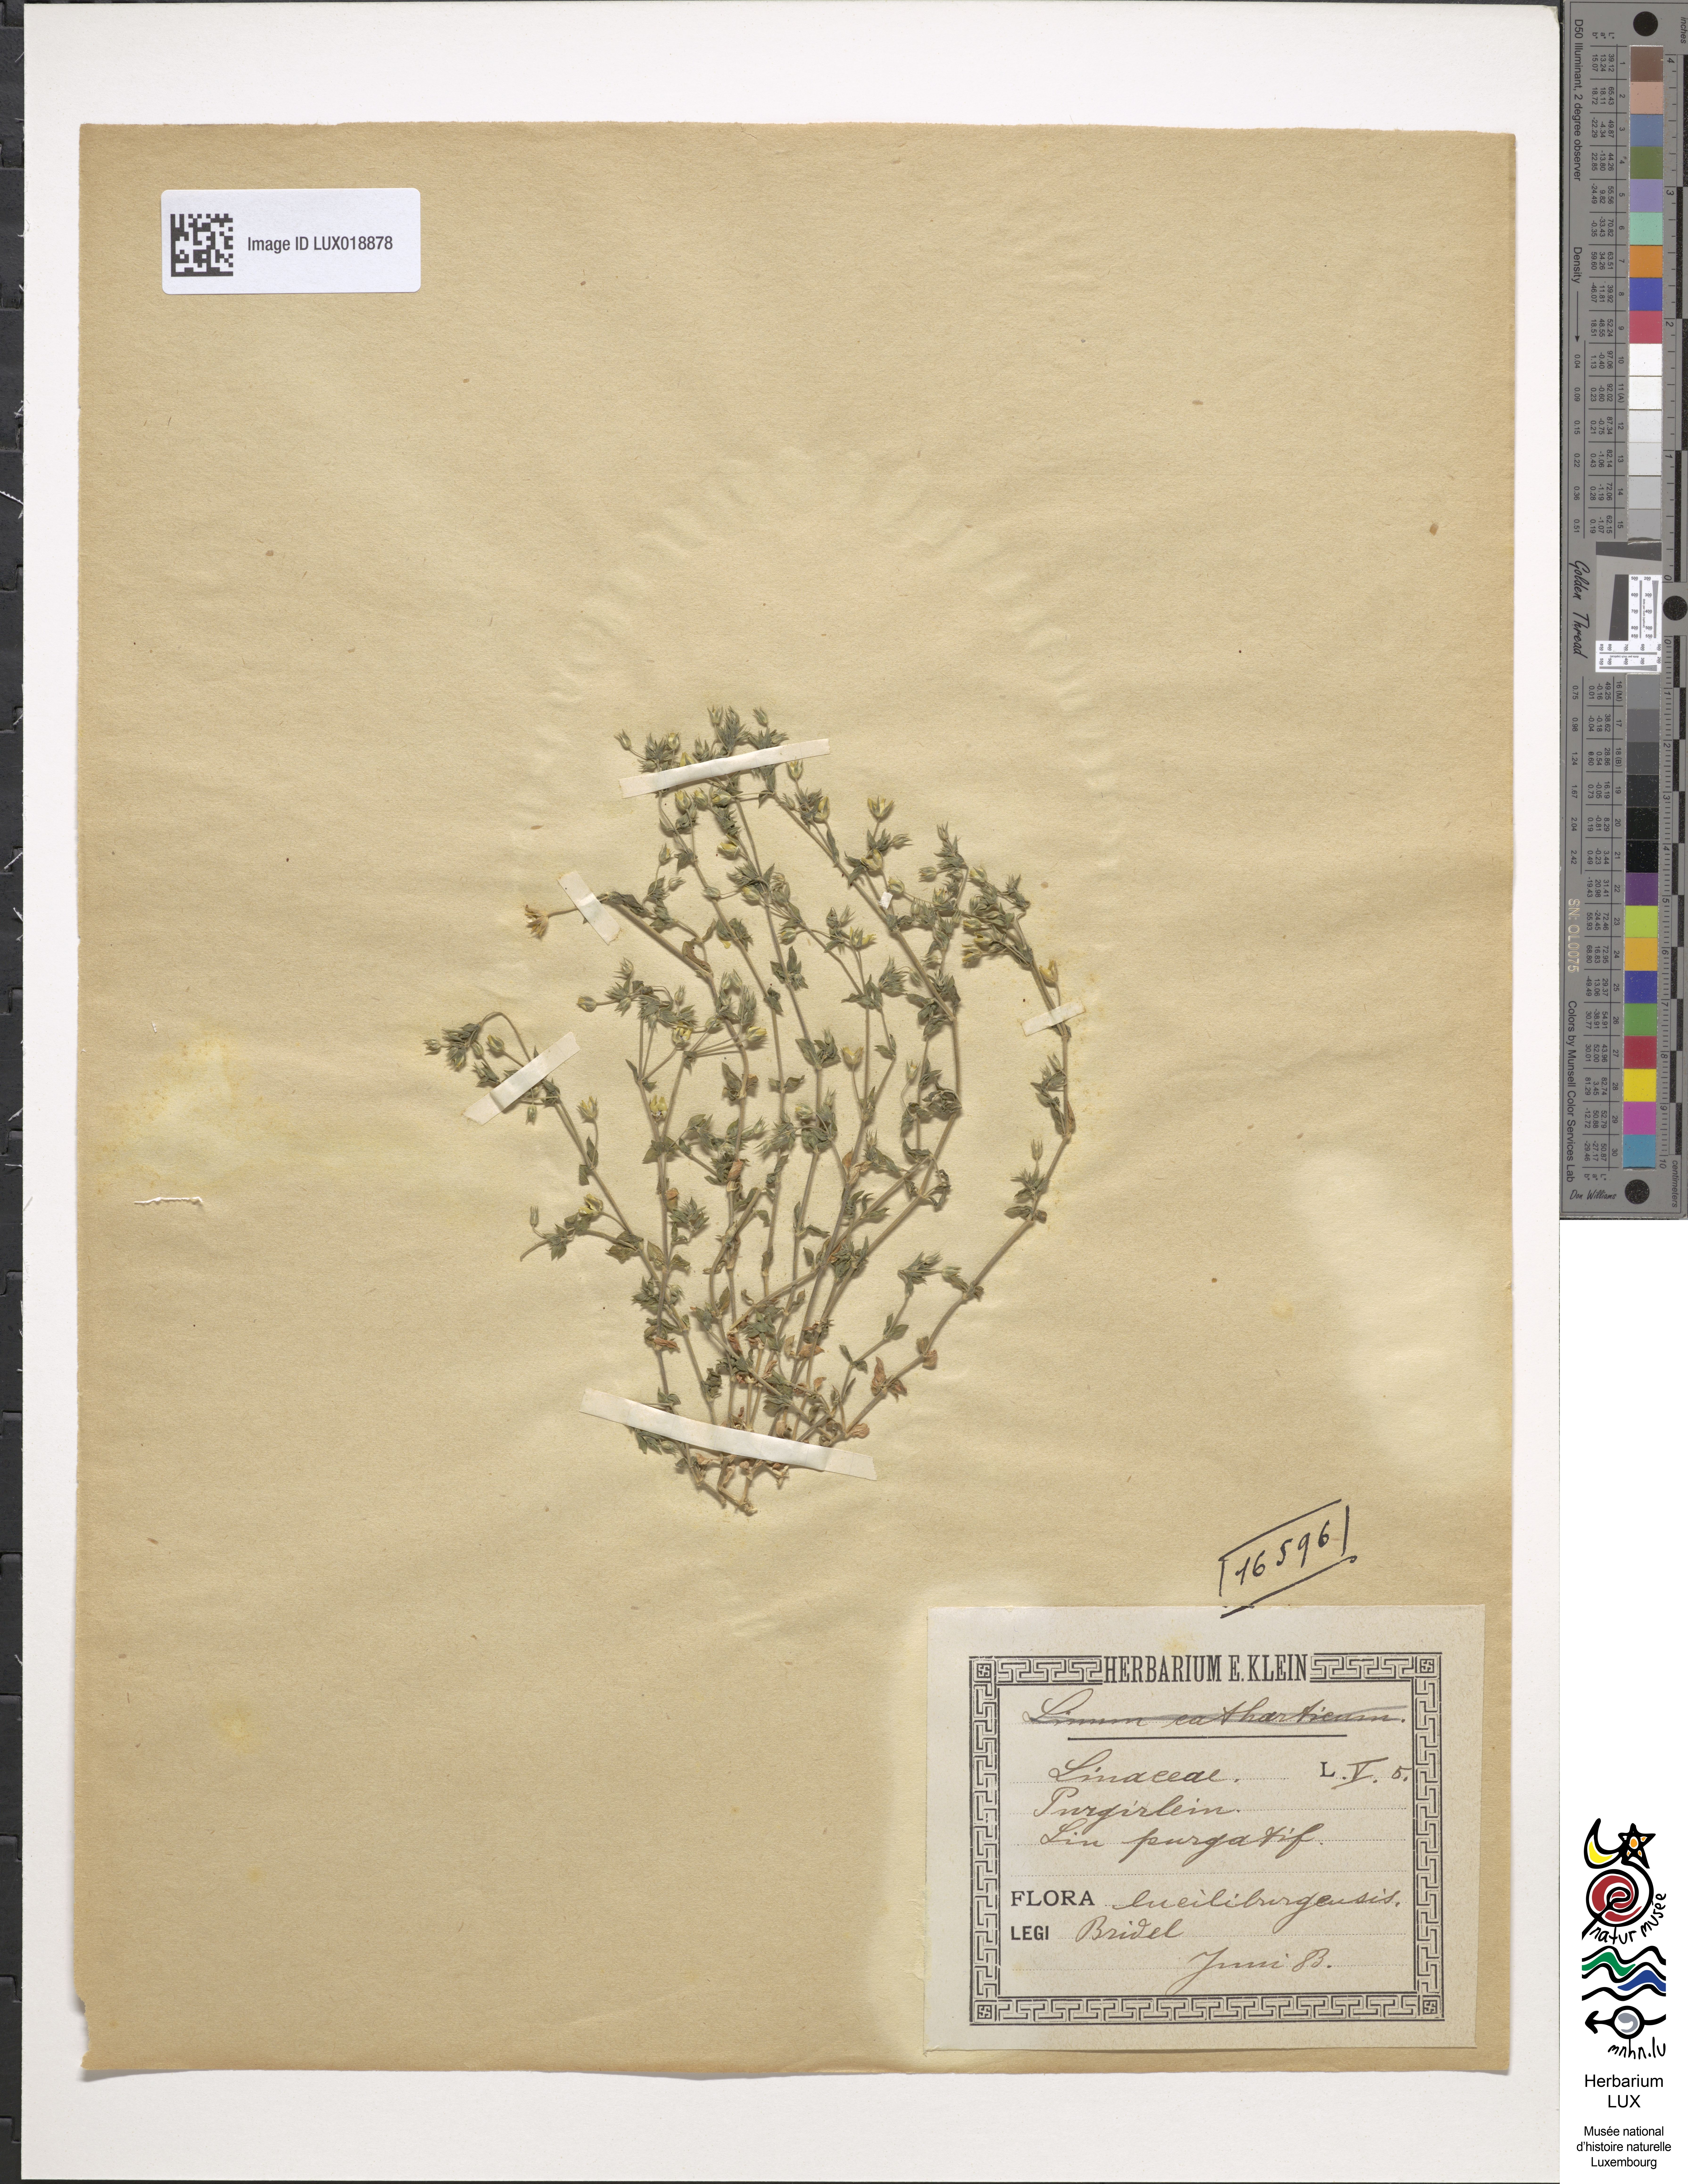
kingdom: Plantae
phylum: Tracheophyta
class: Magnoliopsida
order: Malpighiales
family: Linaceae
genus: Linum
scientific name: Linum catharticum
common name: Fairy flax
